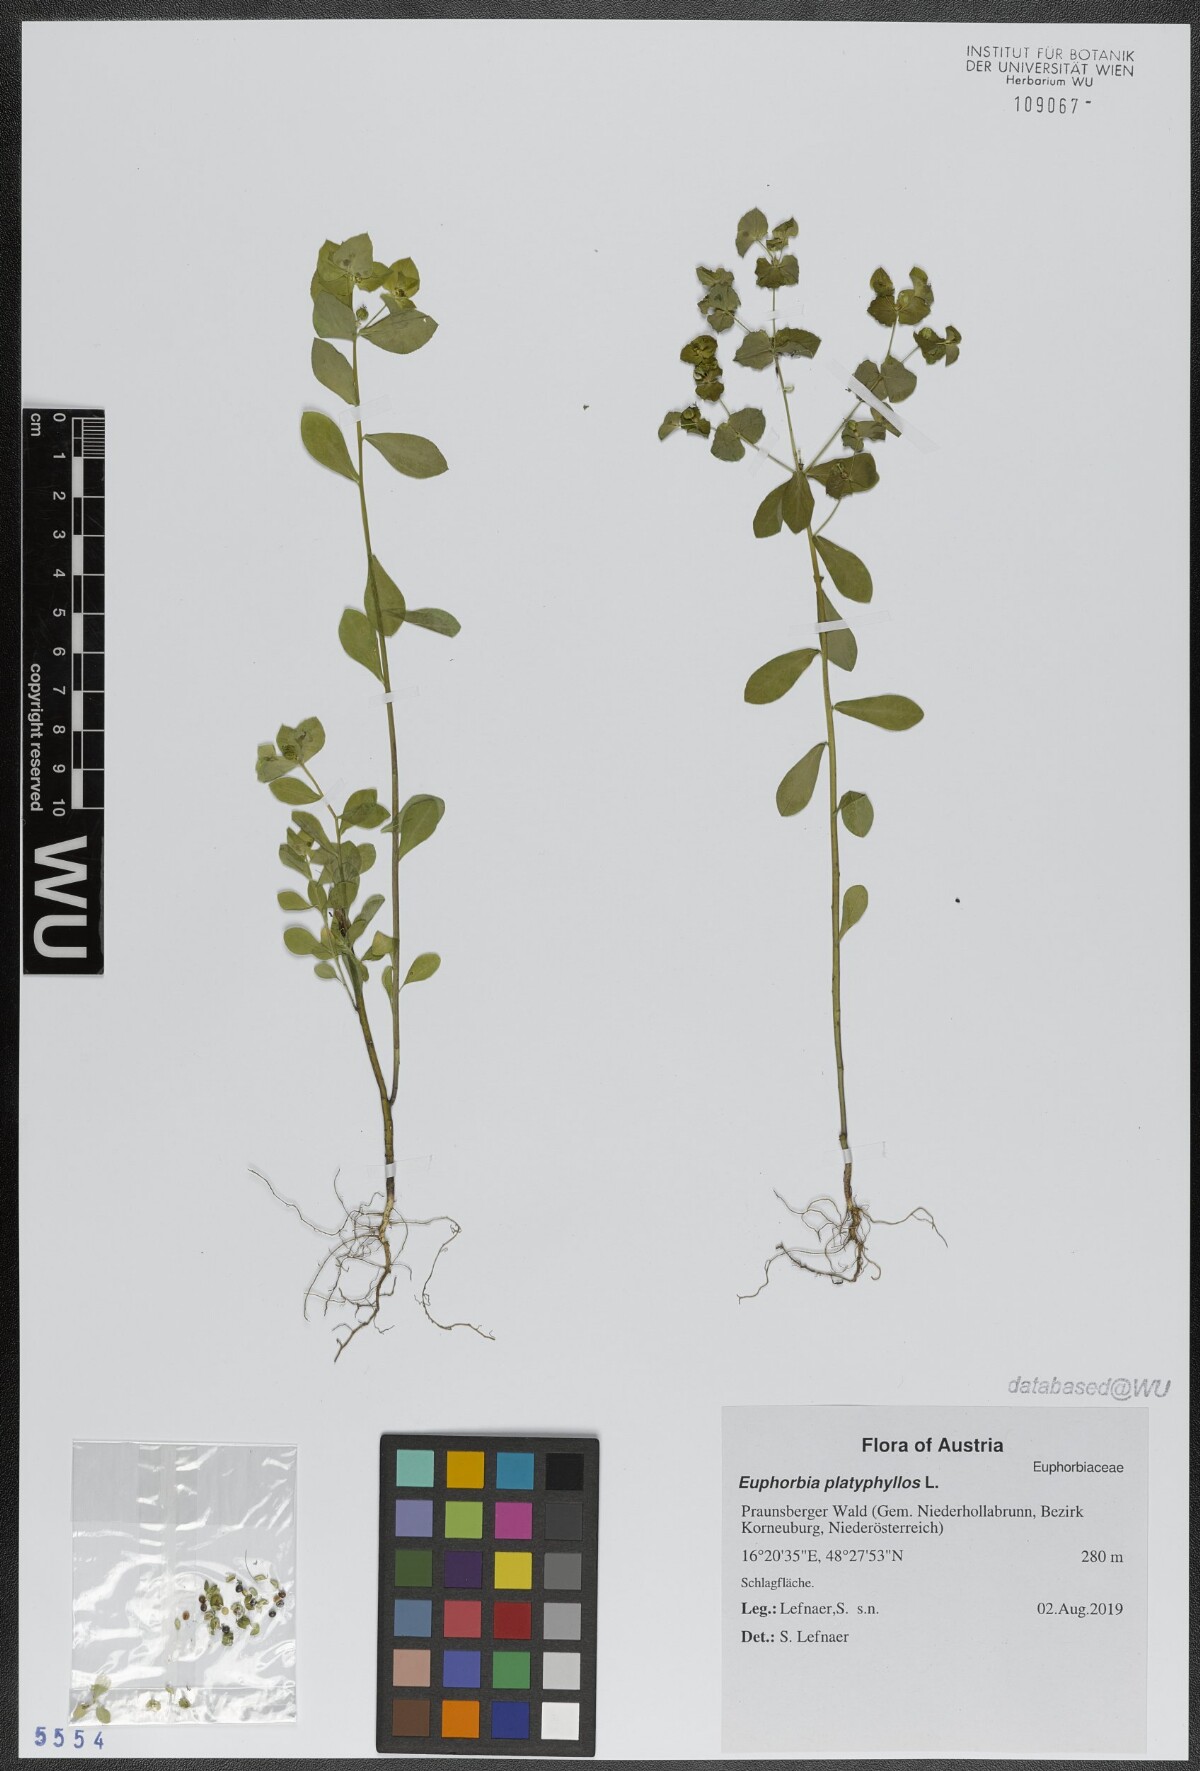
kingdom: Plantae
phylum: Tracheophyta
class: Magnoliopsida
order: Malpighiales
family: Euphorbiaceae
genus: Euphorbia
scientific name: Euphorbia platyphyllos
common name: Broad-leaved spurge
